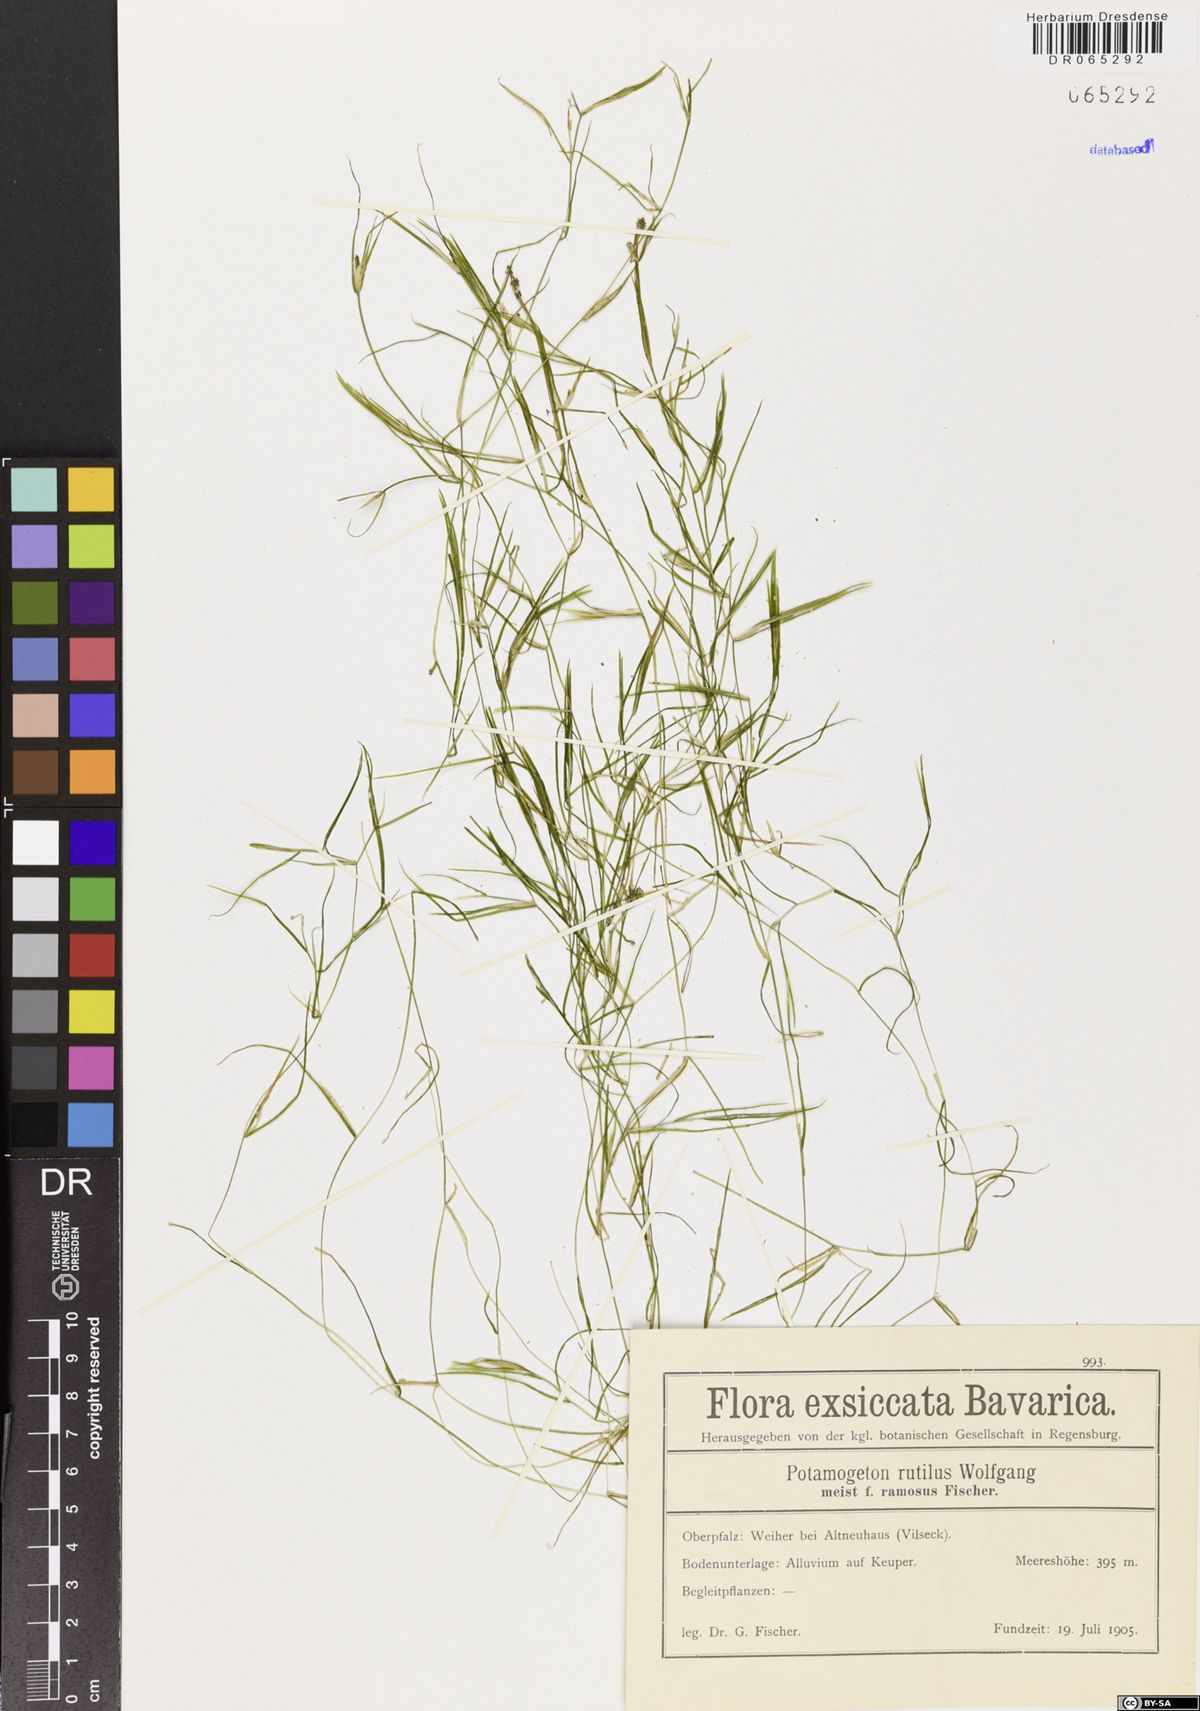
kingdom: Plantae
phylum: Tracheophyta
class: Liliopsida
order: Alismatales
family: Potamogetonaceae
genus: Potamogeton
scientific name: Potamogeton rutilus
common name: Shetland pondweed
